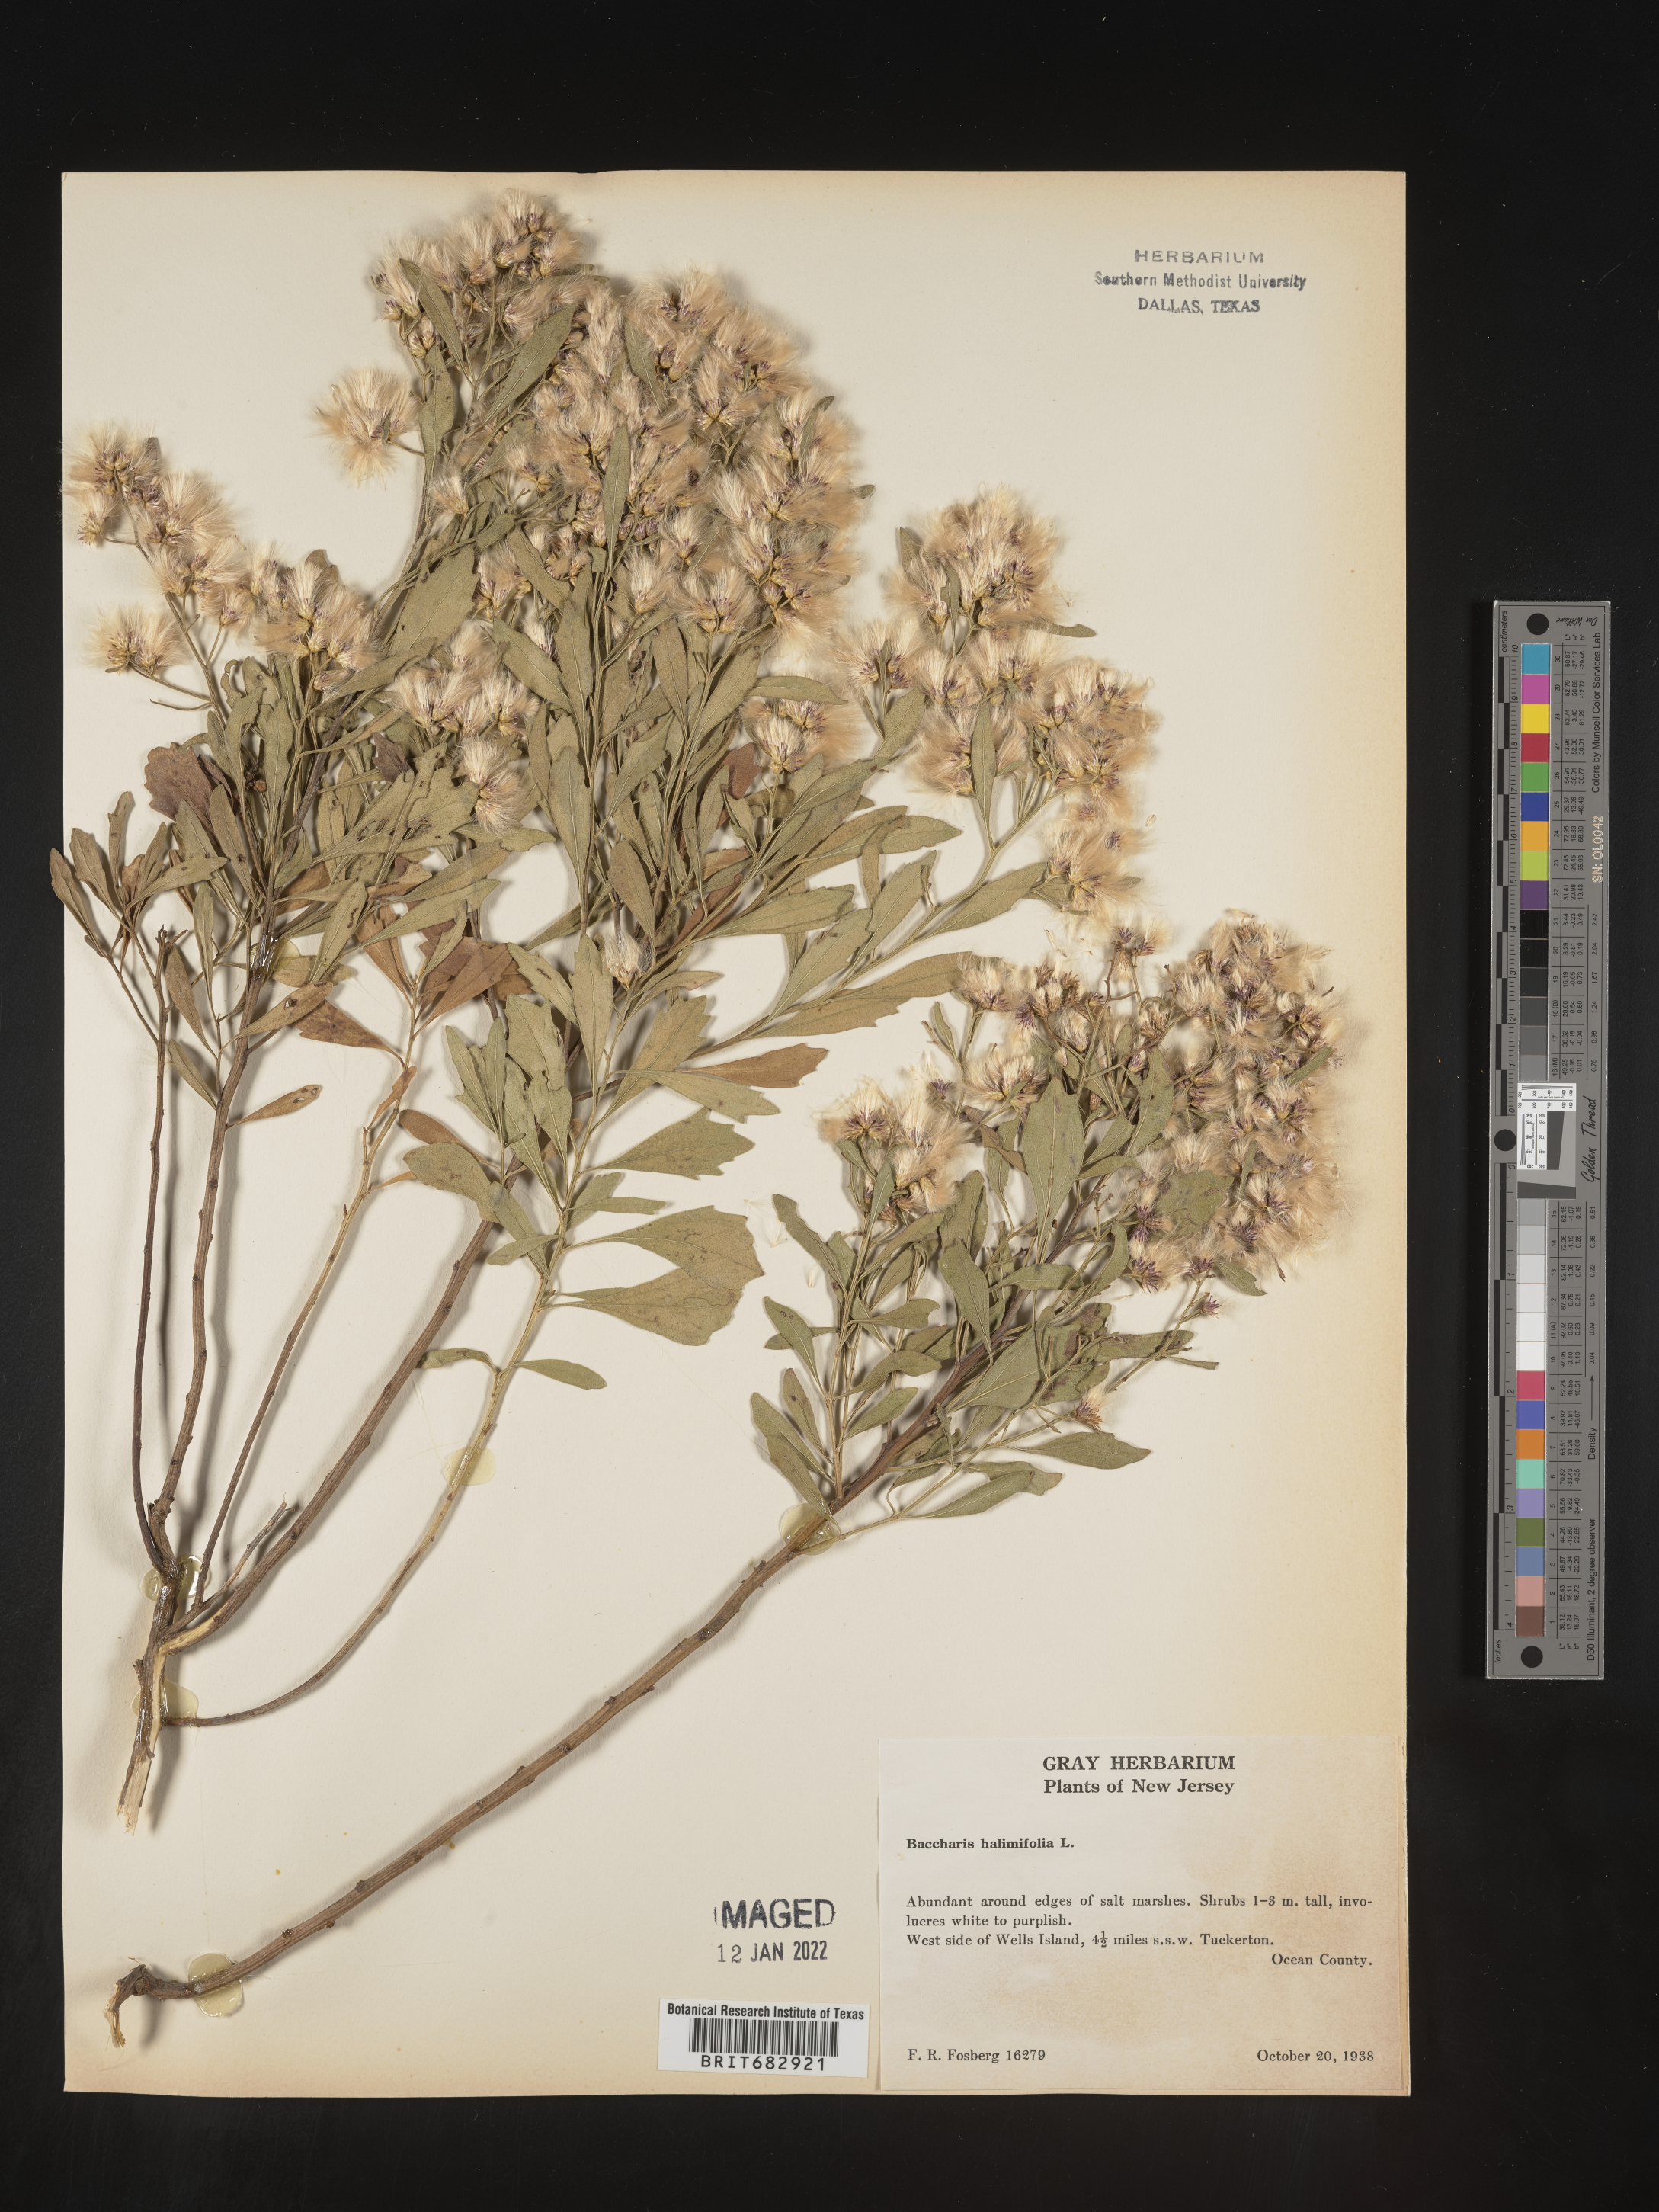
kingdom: Plantae
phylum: Tracheophyta
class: Magnoliopsida
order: Asterales
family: Asteraceae
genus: Nidorella
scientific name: Nidorella ivifolia
